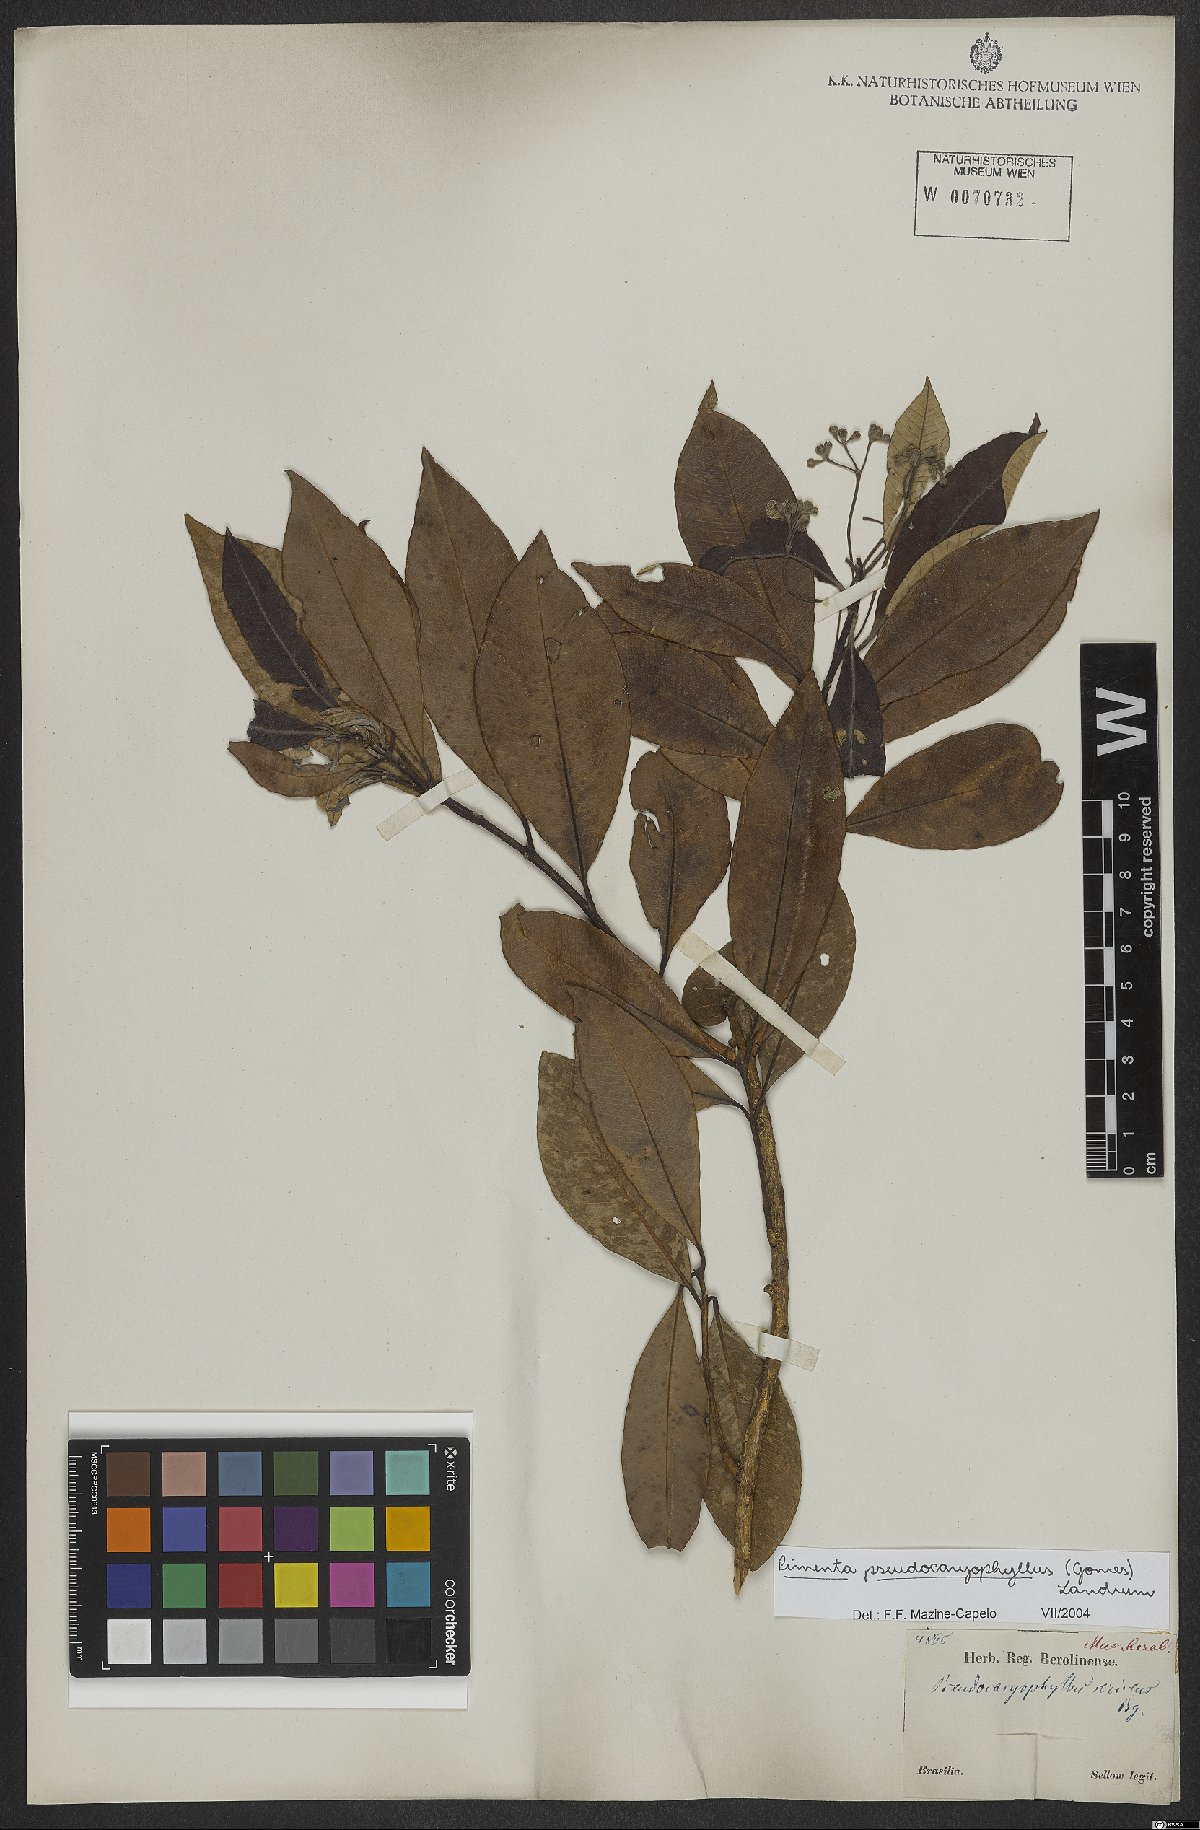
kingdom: Plantae
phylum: Tracheophyta
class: Magnoliopsida
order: Myrtales
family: Myrtaceae
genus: Pimenta
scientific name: Pimenta pseudocaryophyllus
